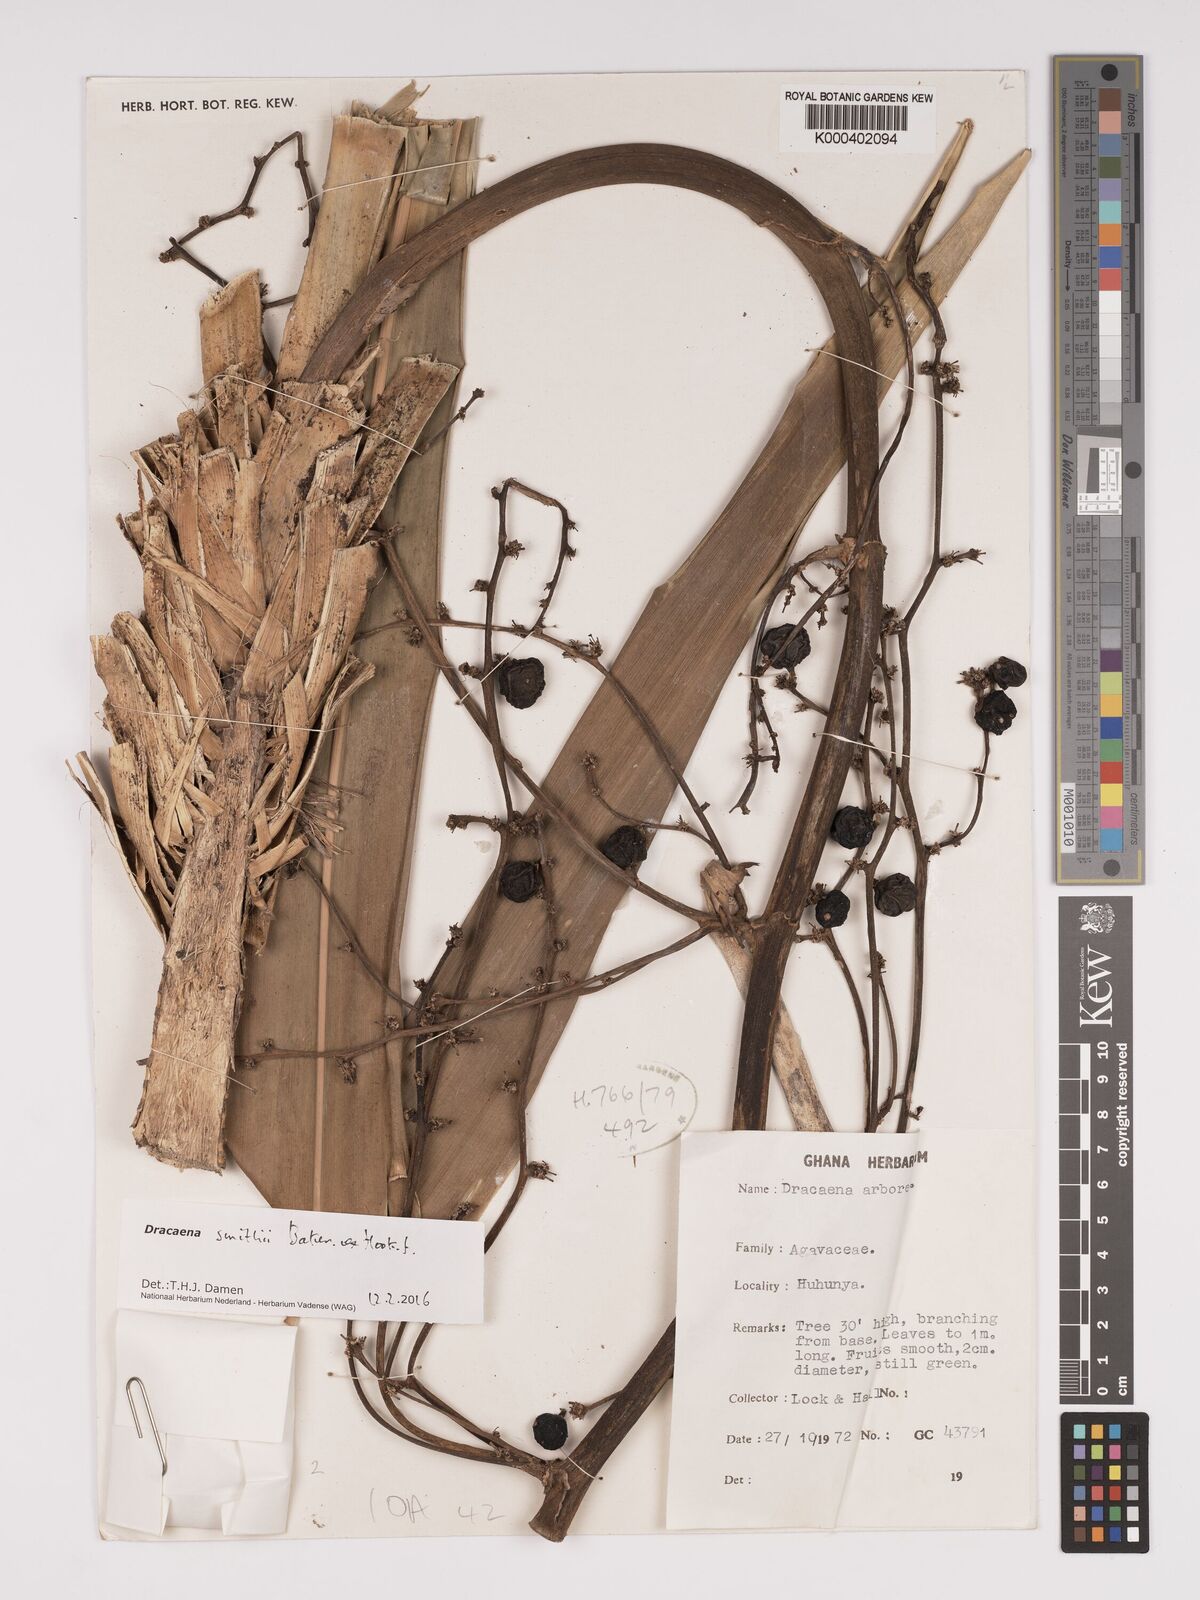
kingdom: Plantae
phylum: Tracheophyta
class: Liliopsida
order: Asparagales
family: Asparagaceae
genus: Dracaena
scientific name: Dracaena arborea
